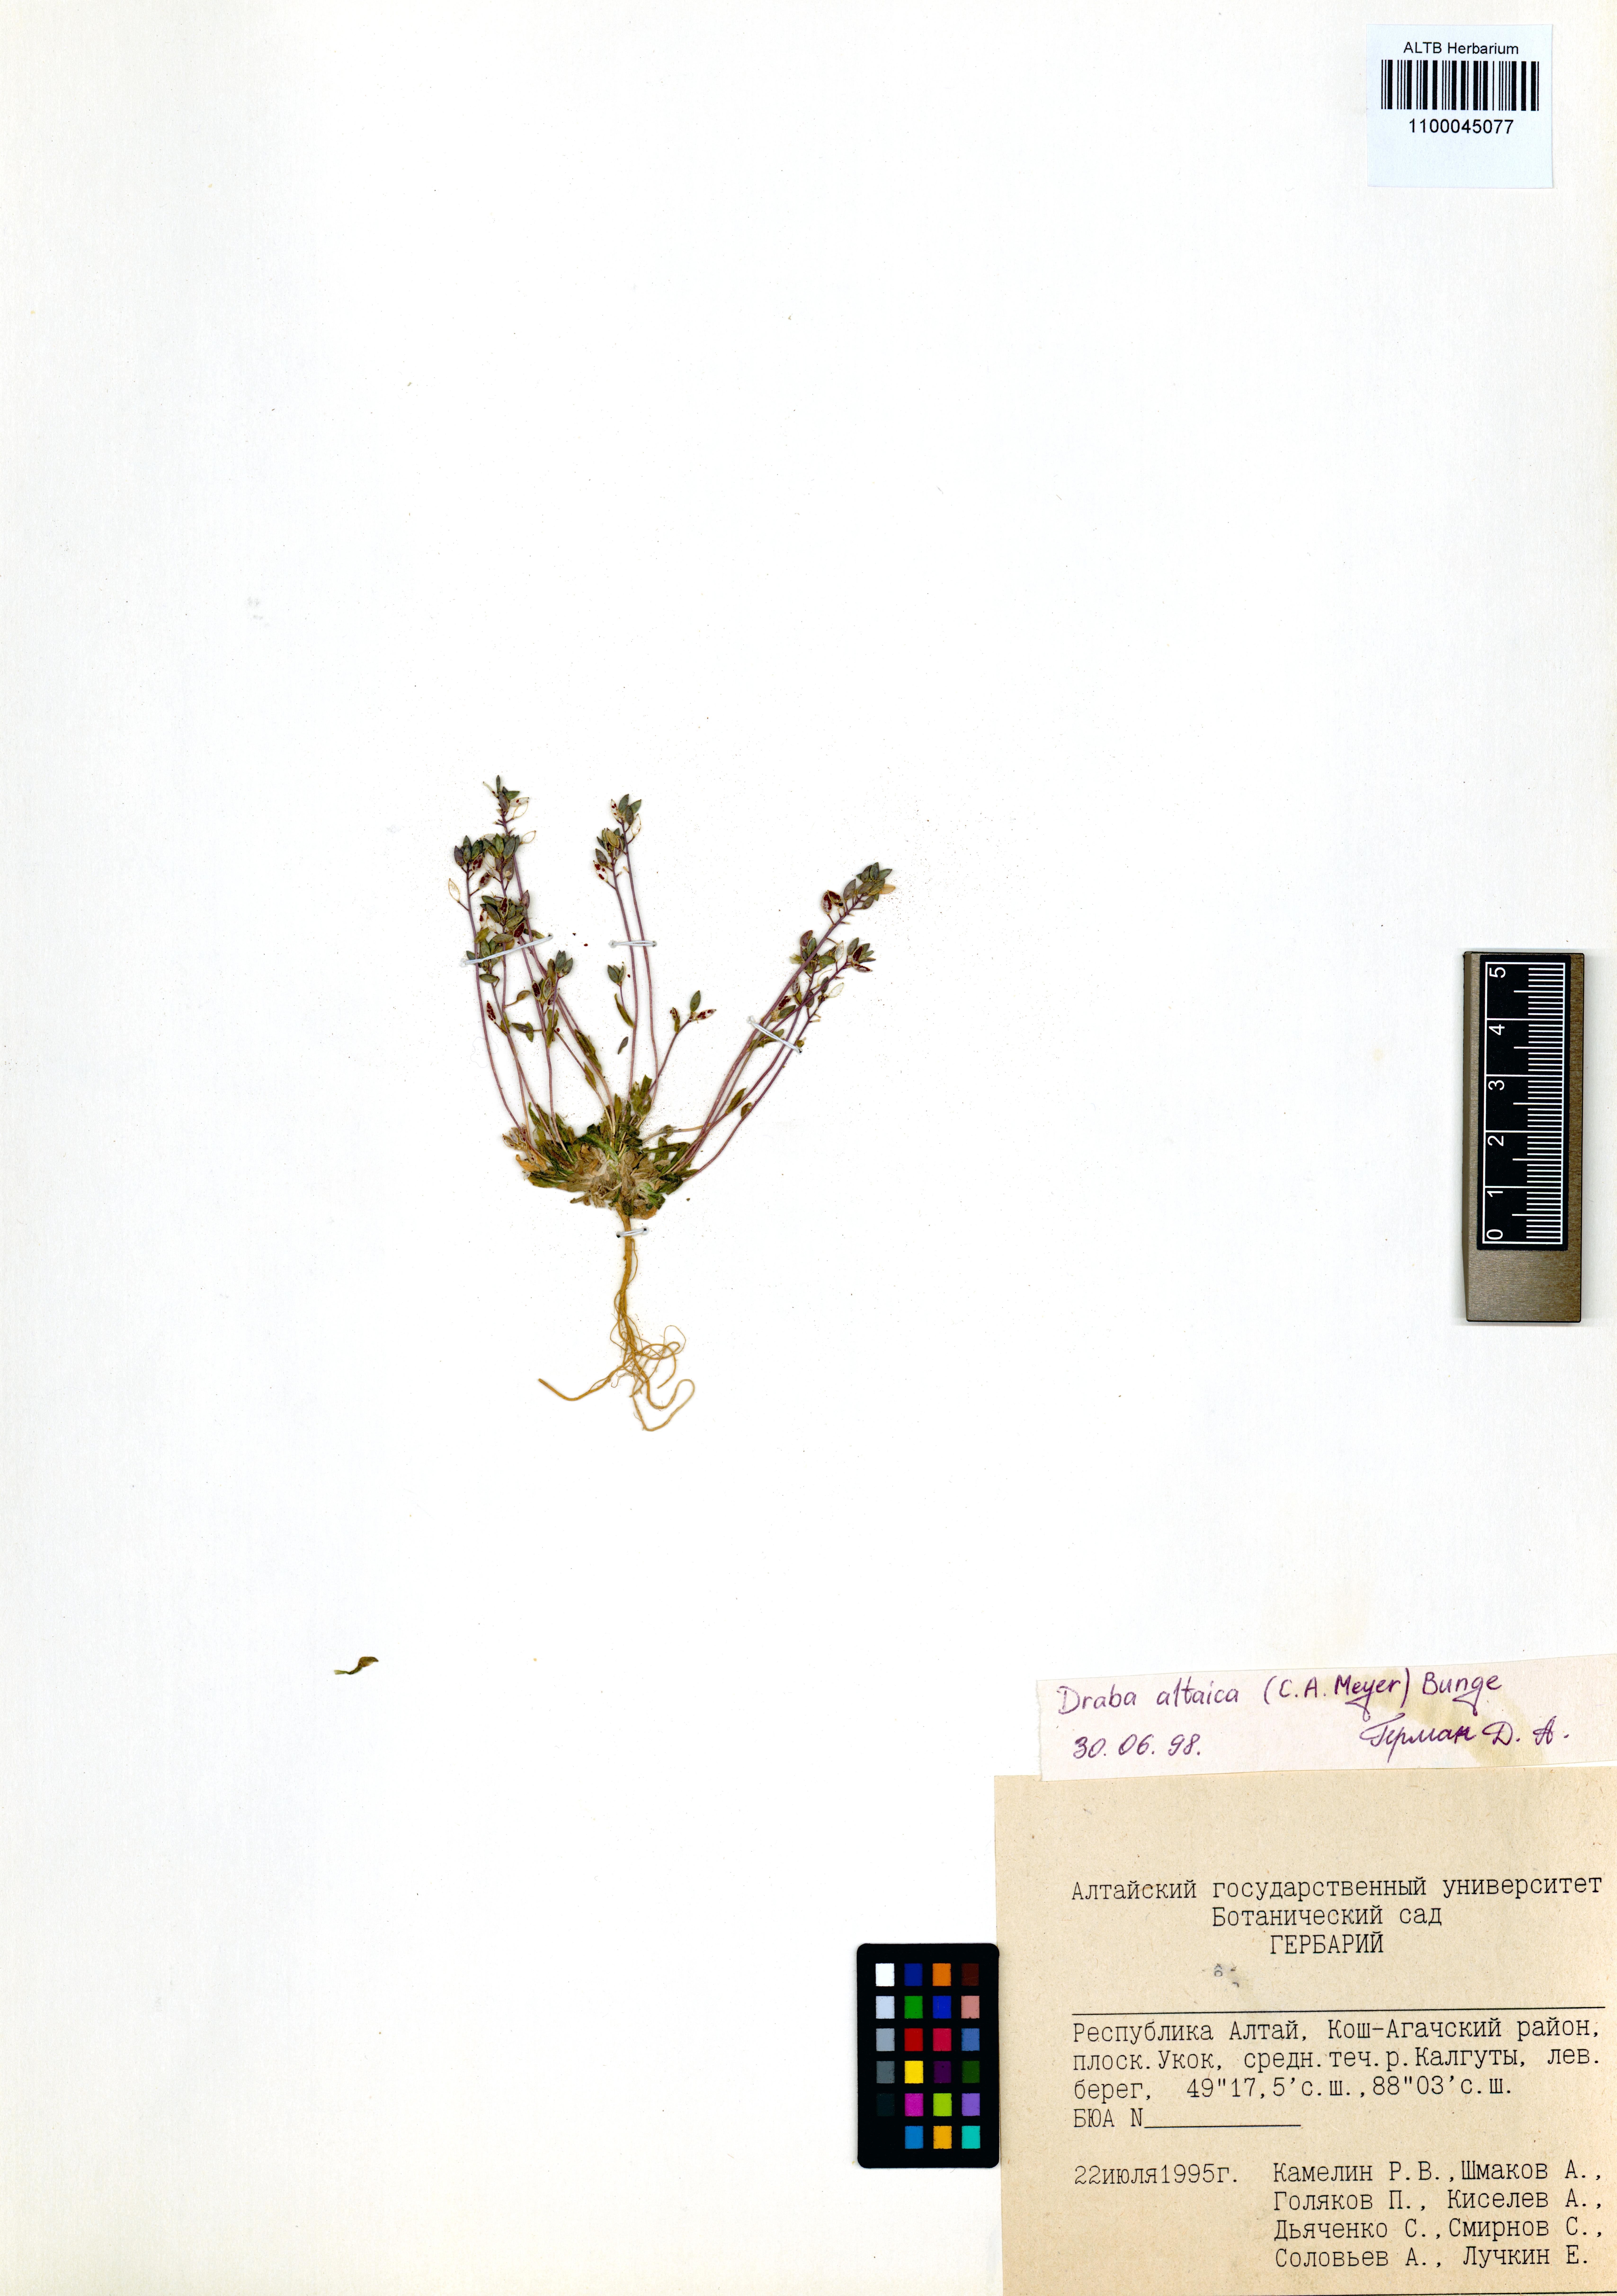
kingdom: Plantae
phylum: Tracheophyta
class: Magnoliopsida
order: Brassicales
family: Brassicaceae
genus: Draba
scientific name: Draba altaica
